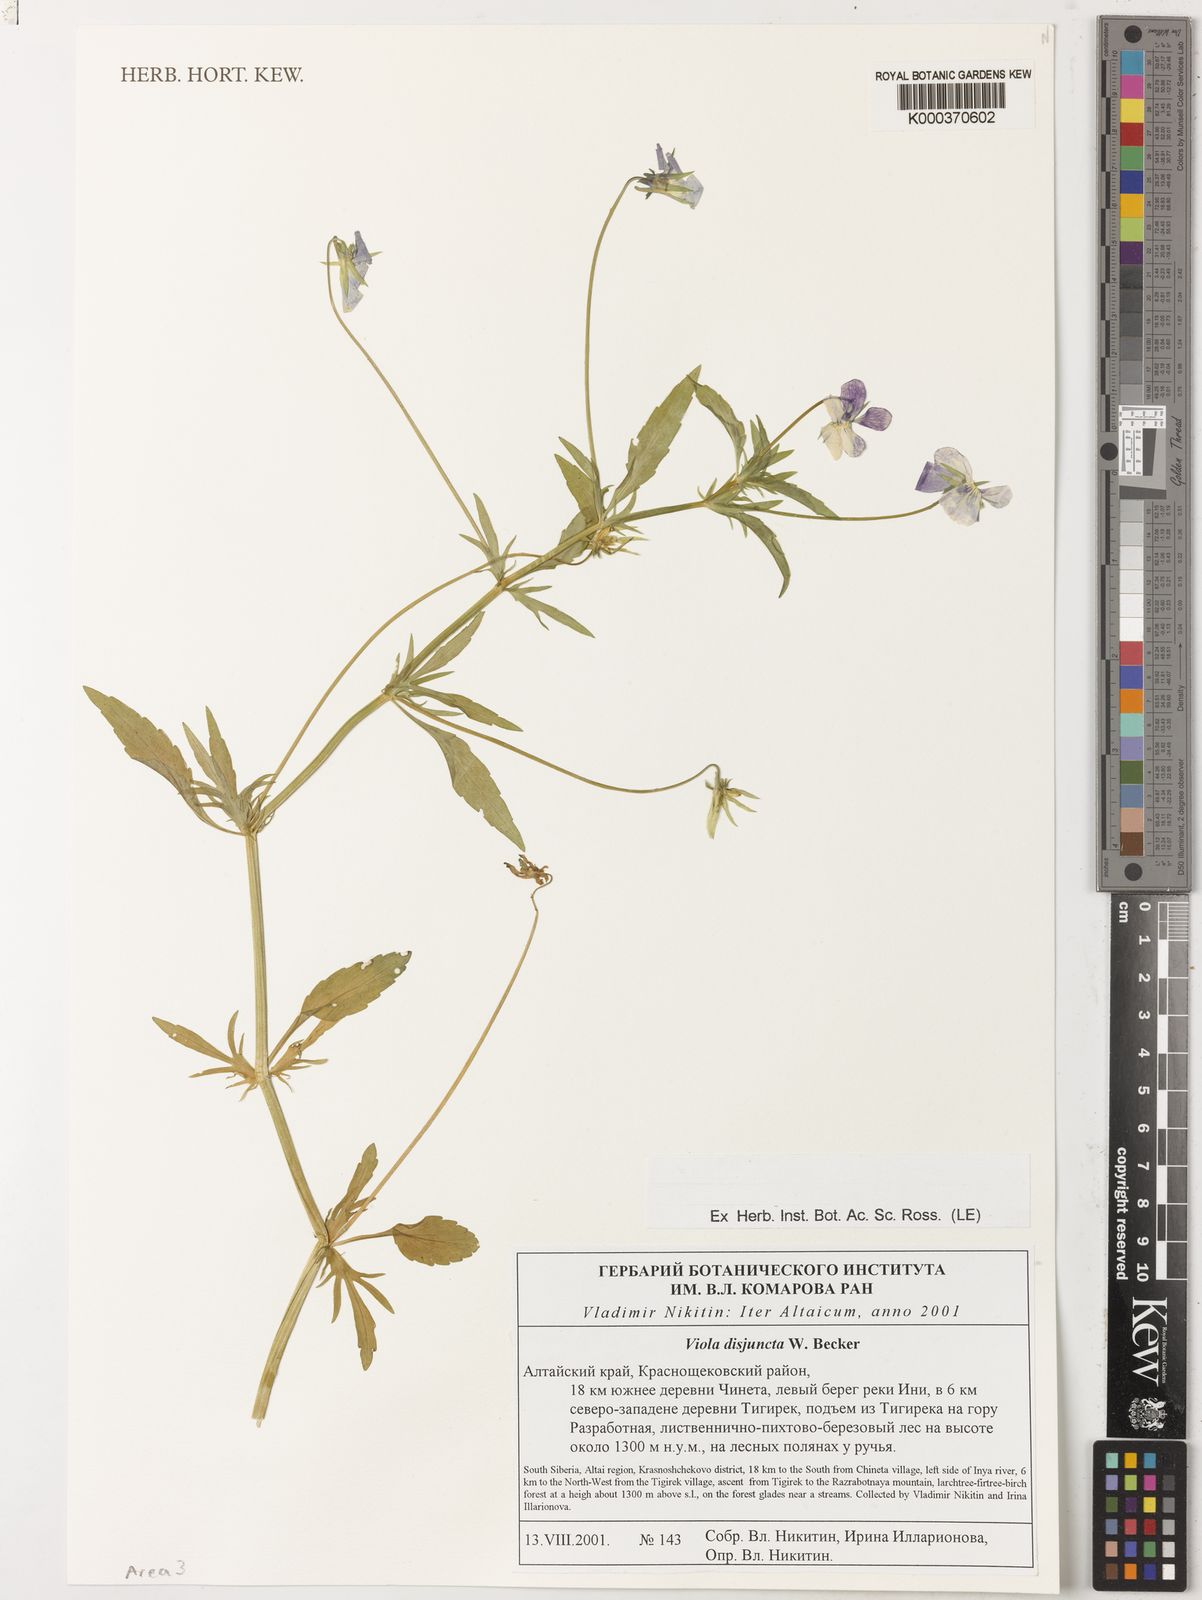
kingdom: Plantae
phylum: Tracheophyta
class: Magnoliopsida
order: Malpighiales
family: Violaceae
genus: Viola
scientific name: Viola tricolor
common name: Pansy
